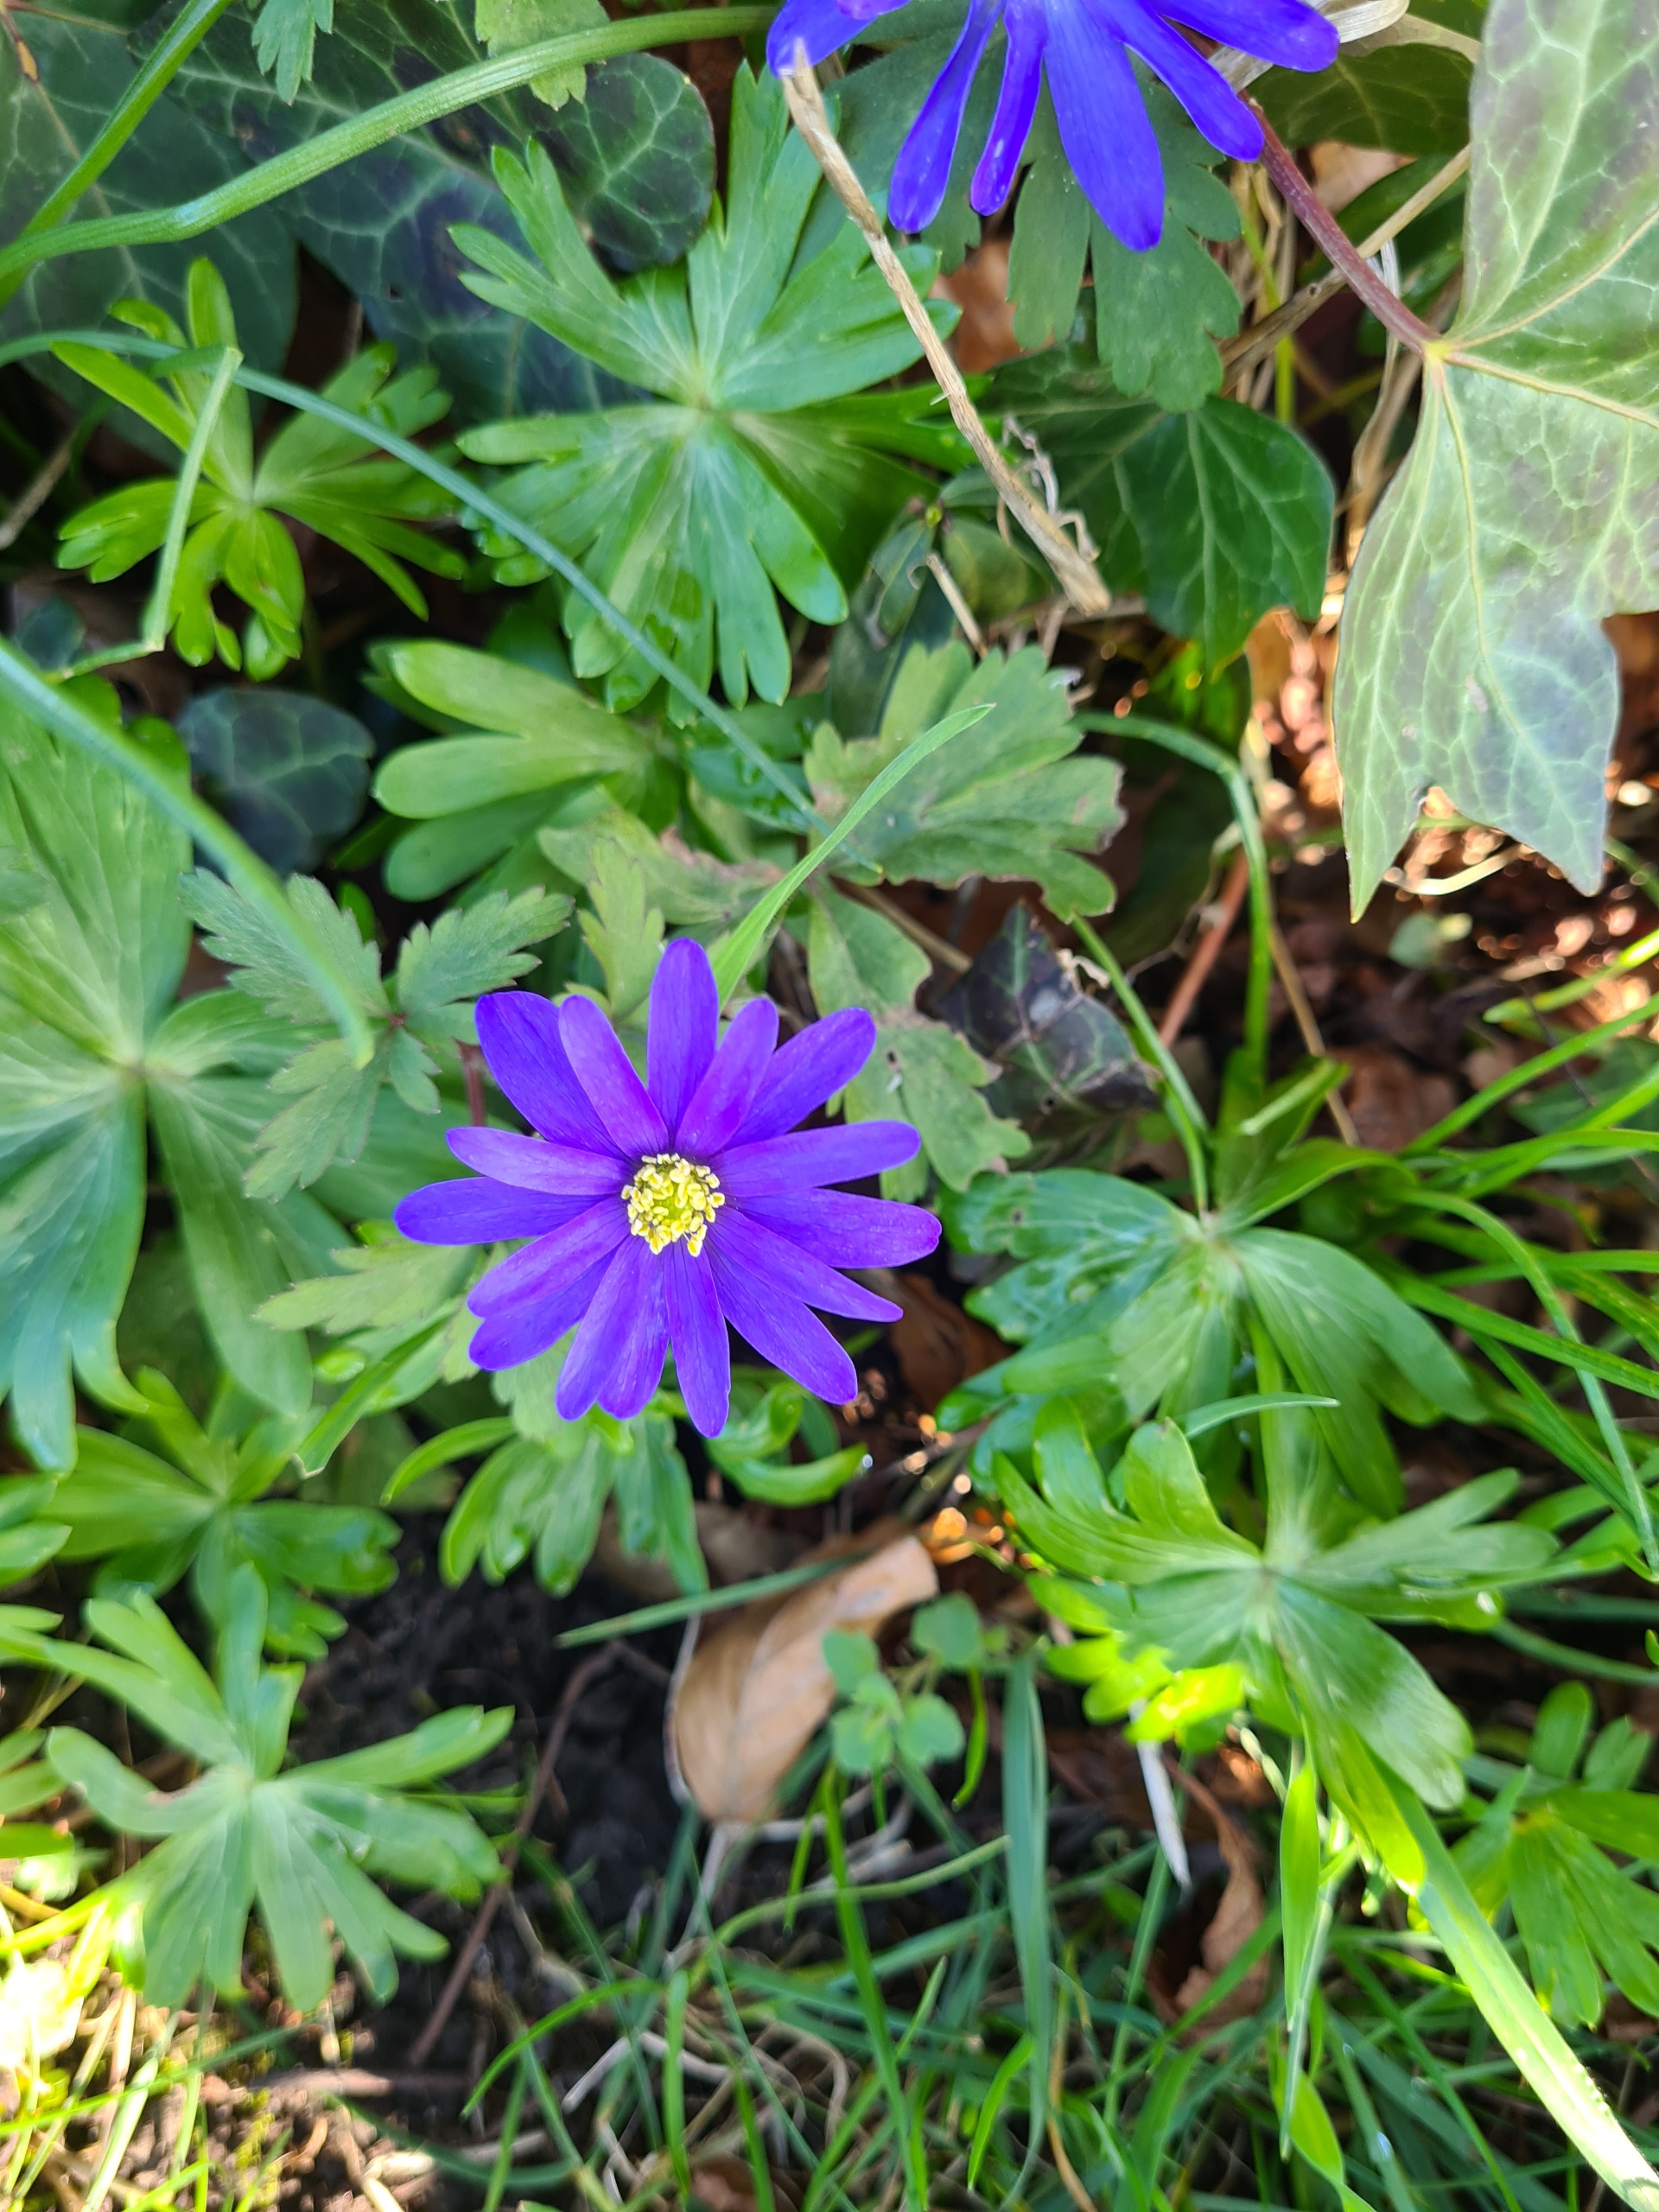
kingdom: Plantae
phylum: Tracheophyta
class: Magnoliopsida
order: Ranunculales
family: Ranunculaceae
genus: Anemone
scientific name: Anemone blanda
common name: Balkan-anemone
